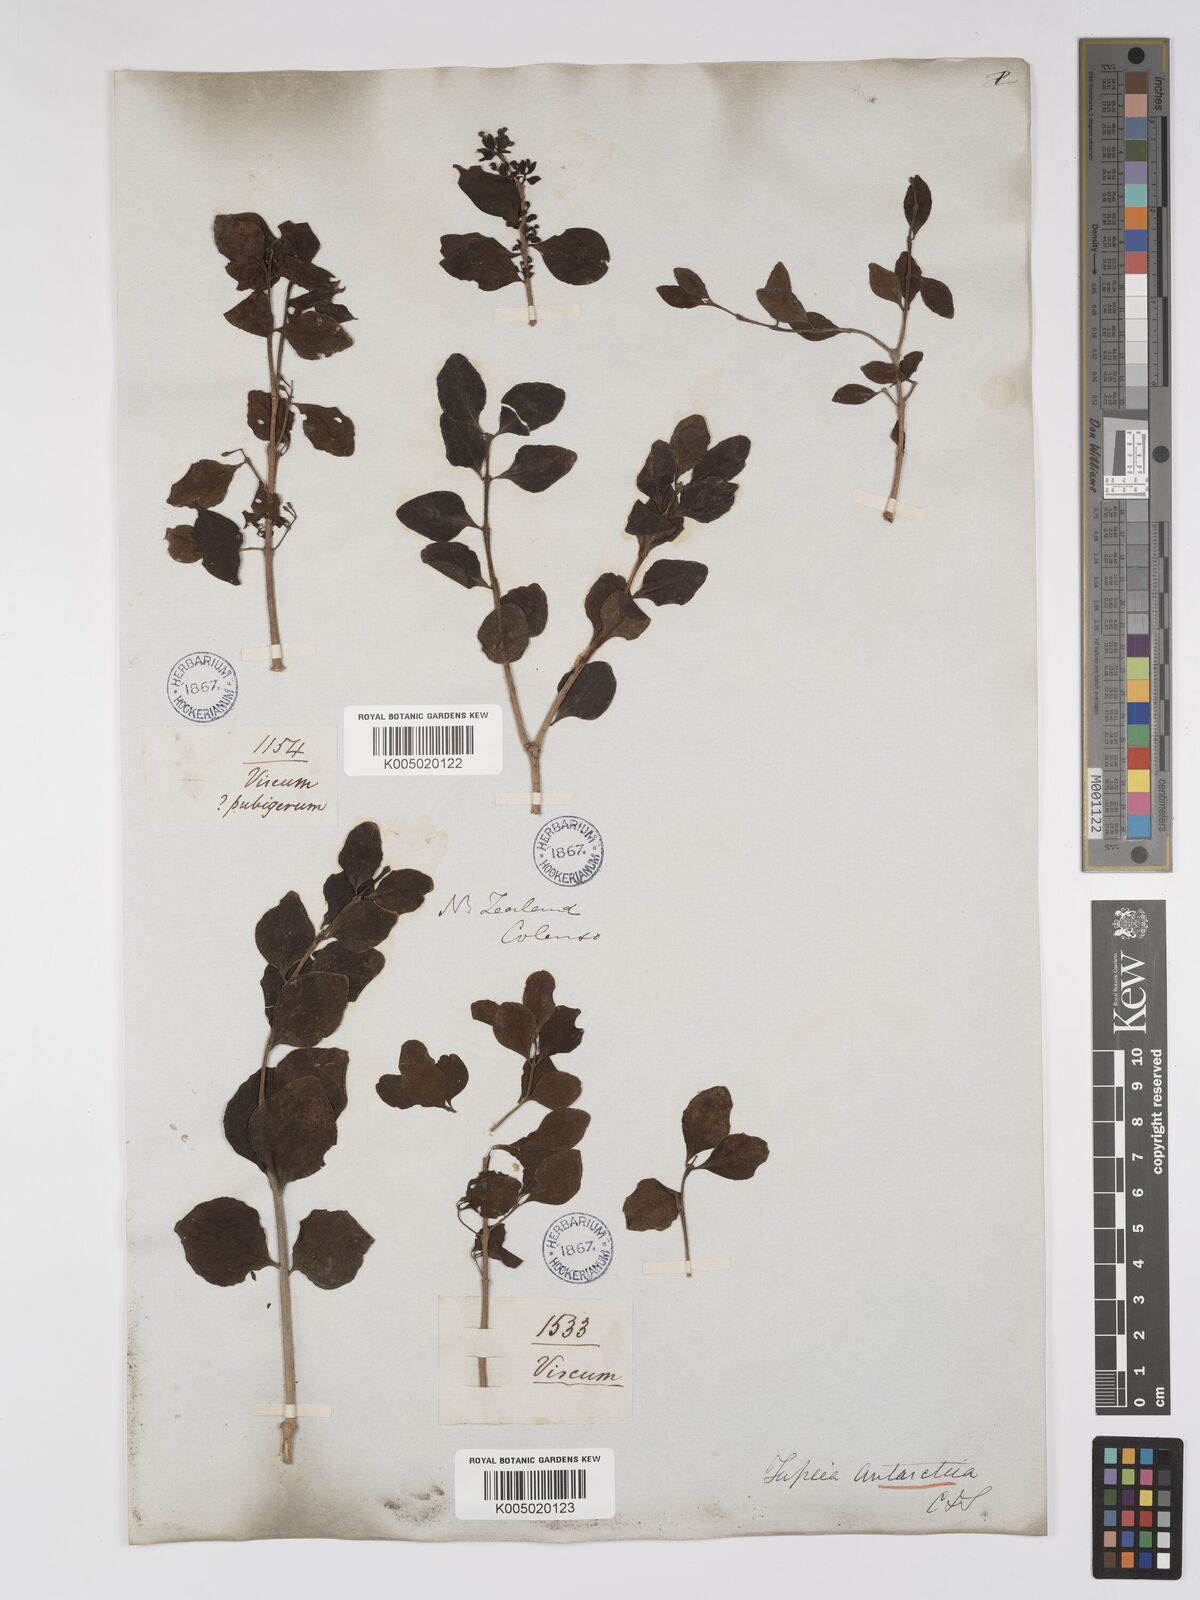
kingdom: Plantae
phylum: Tracheophyta
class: Magnoliopsida
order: Santalales
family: Loranthaceae
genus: Tupeia
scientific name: Tupeia antarctica
